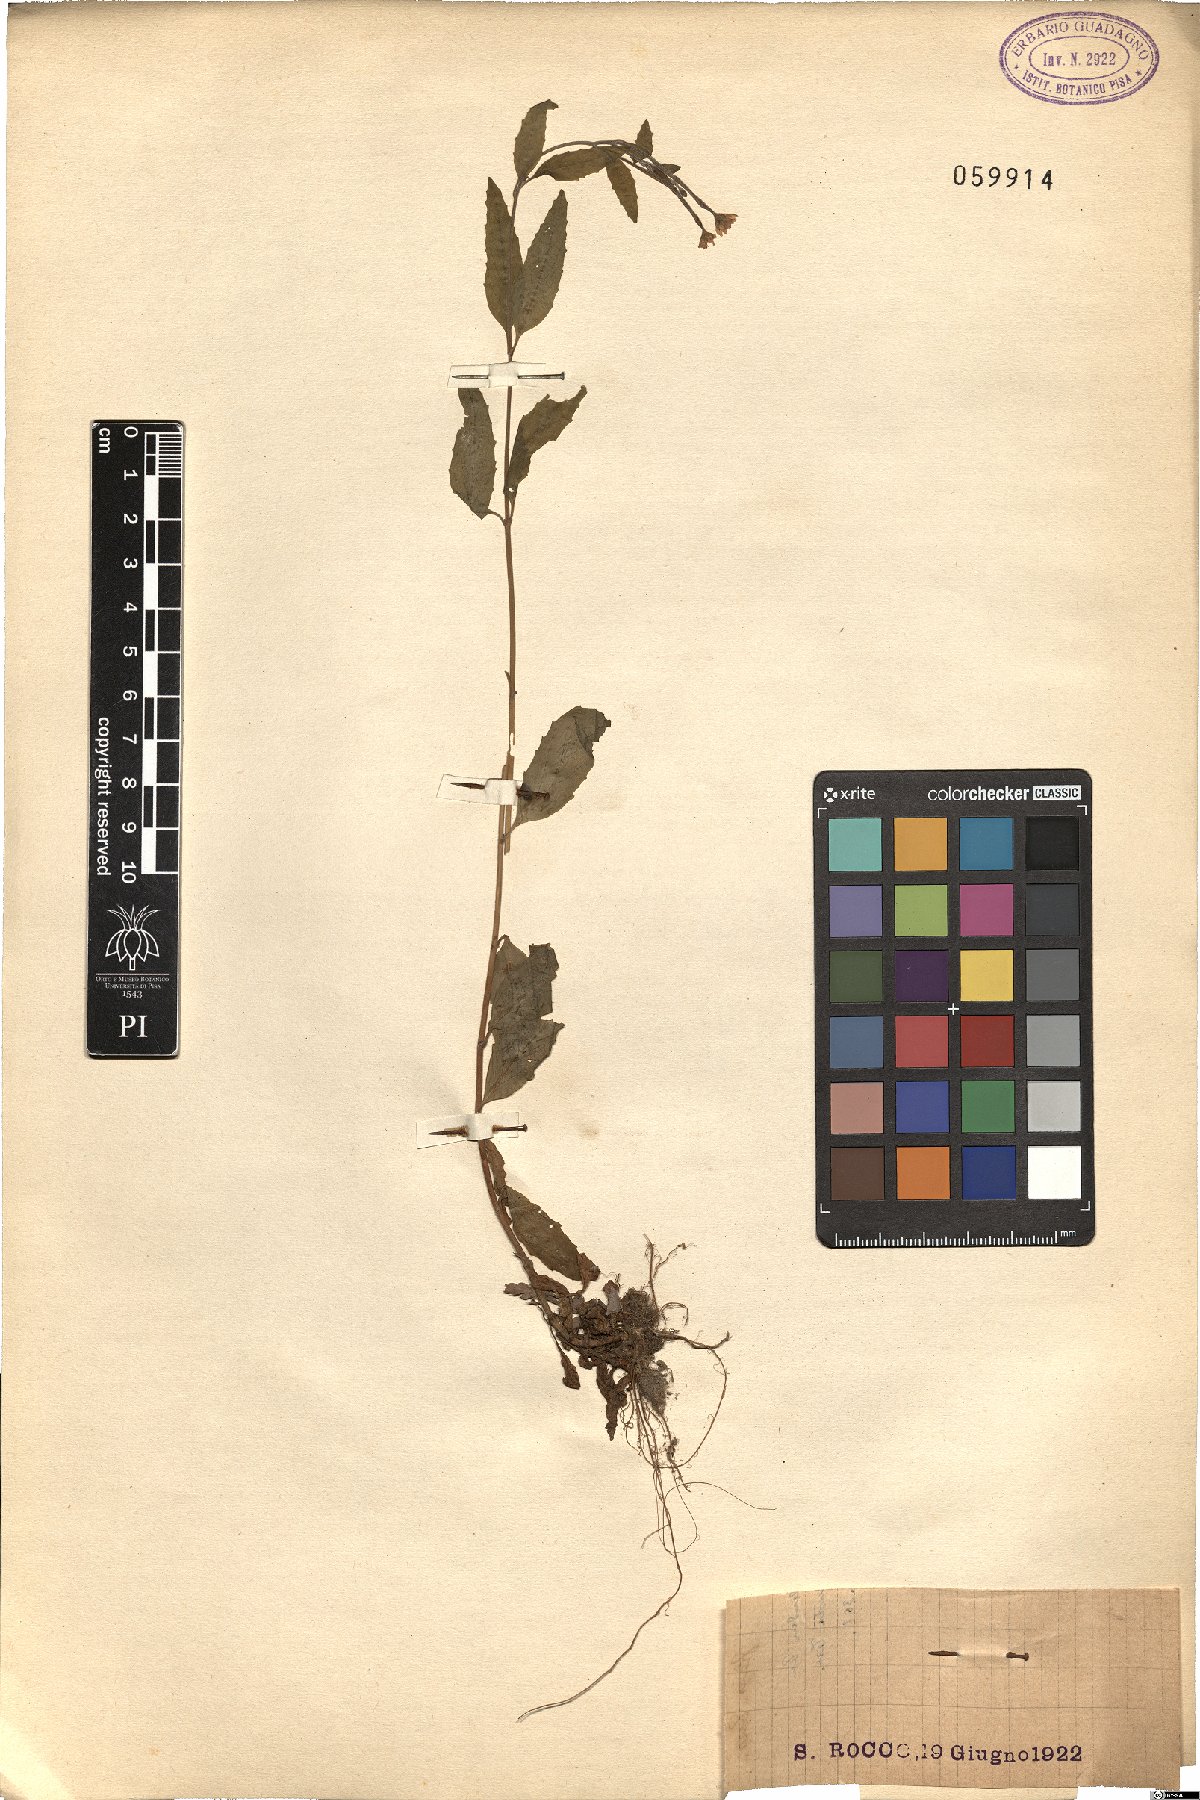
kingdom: Plantae
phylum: Tracheophyta
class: Magnoliopsida
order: Myrtales
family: Onagraceae
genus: Epilobium
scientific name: Epilobium
